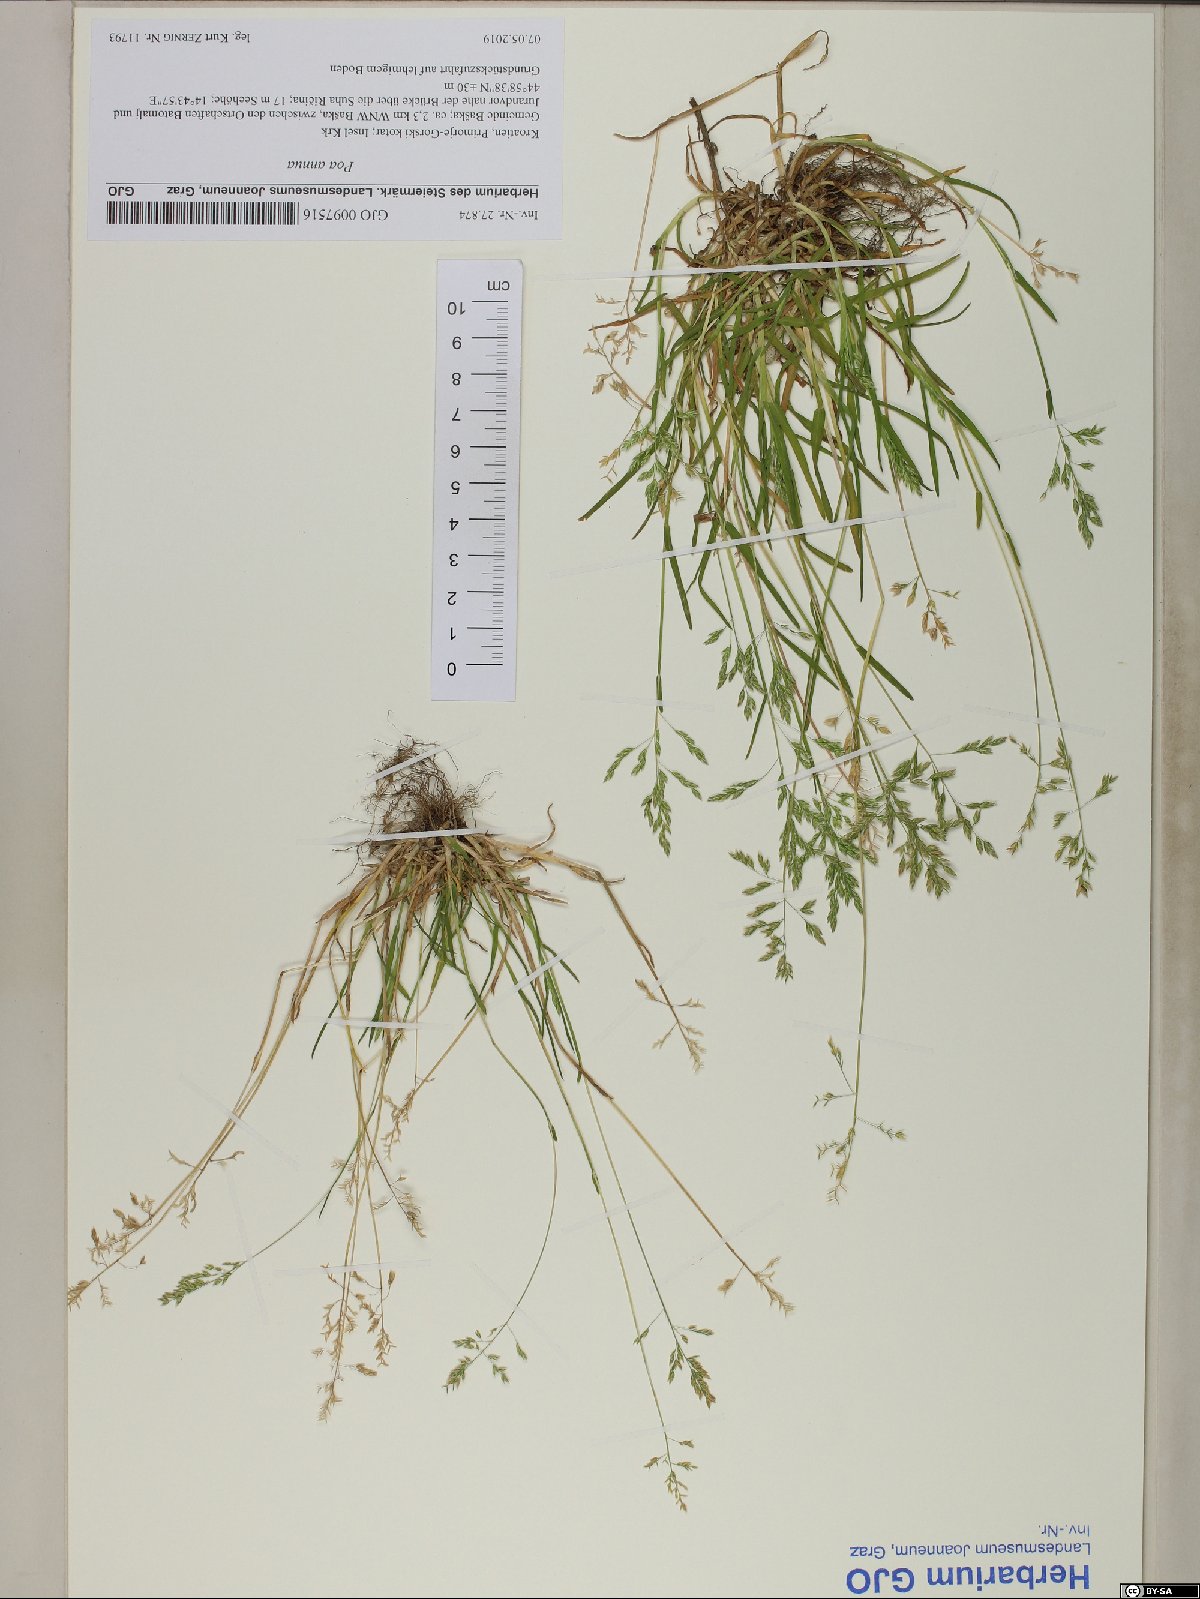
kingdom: Plantae
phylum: Tracheophyta
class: Liliopsida
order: Poales
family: Poaceae
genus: Poa
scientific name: Poa annua
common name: Annual bluegrass
